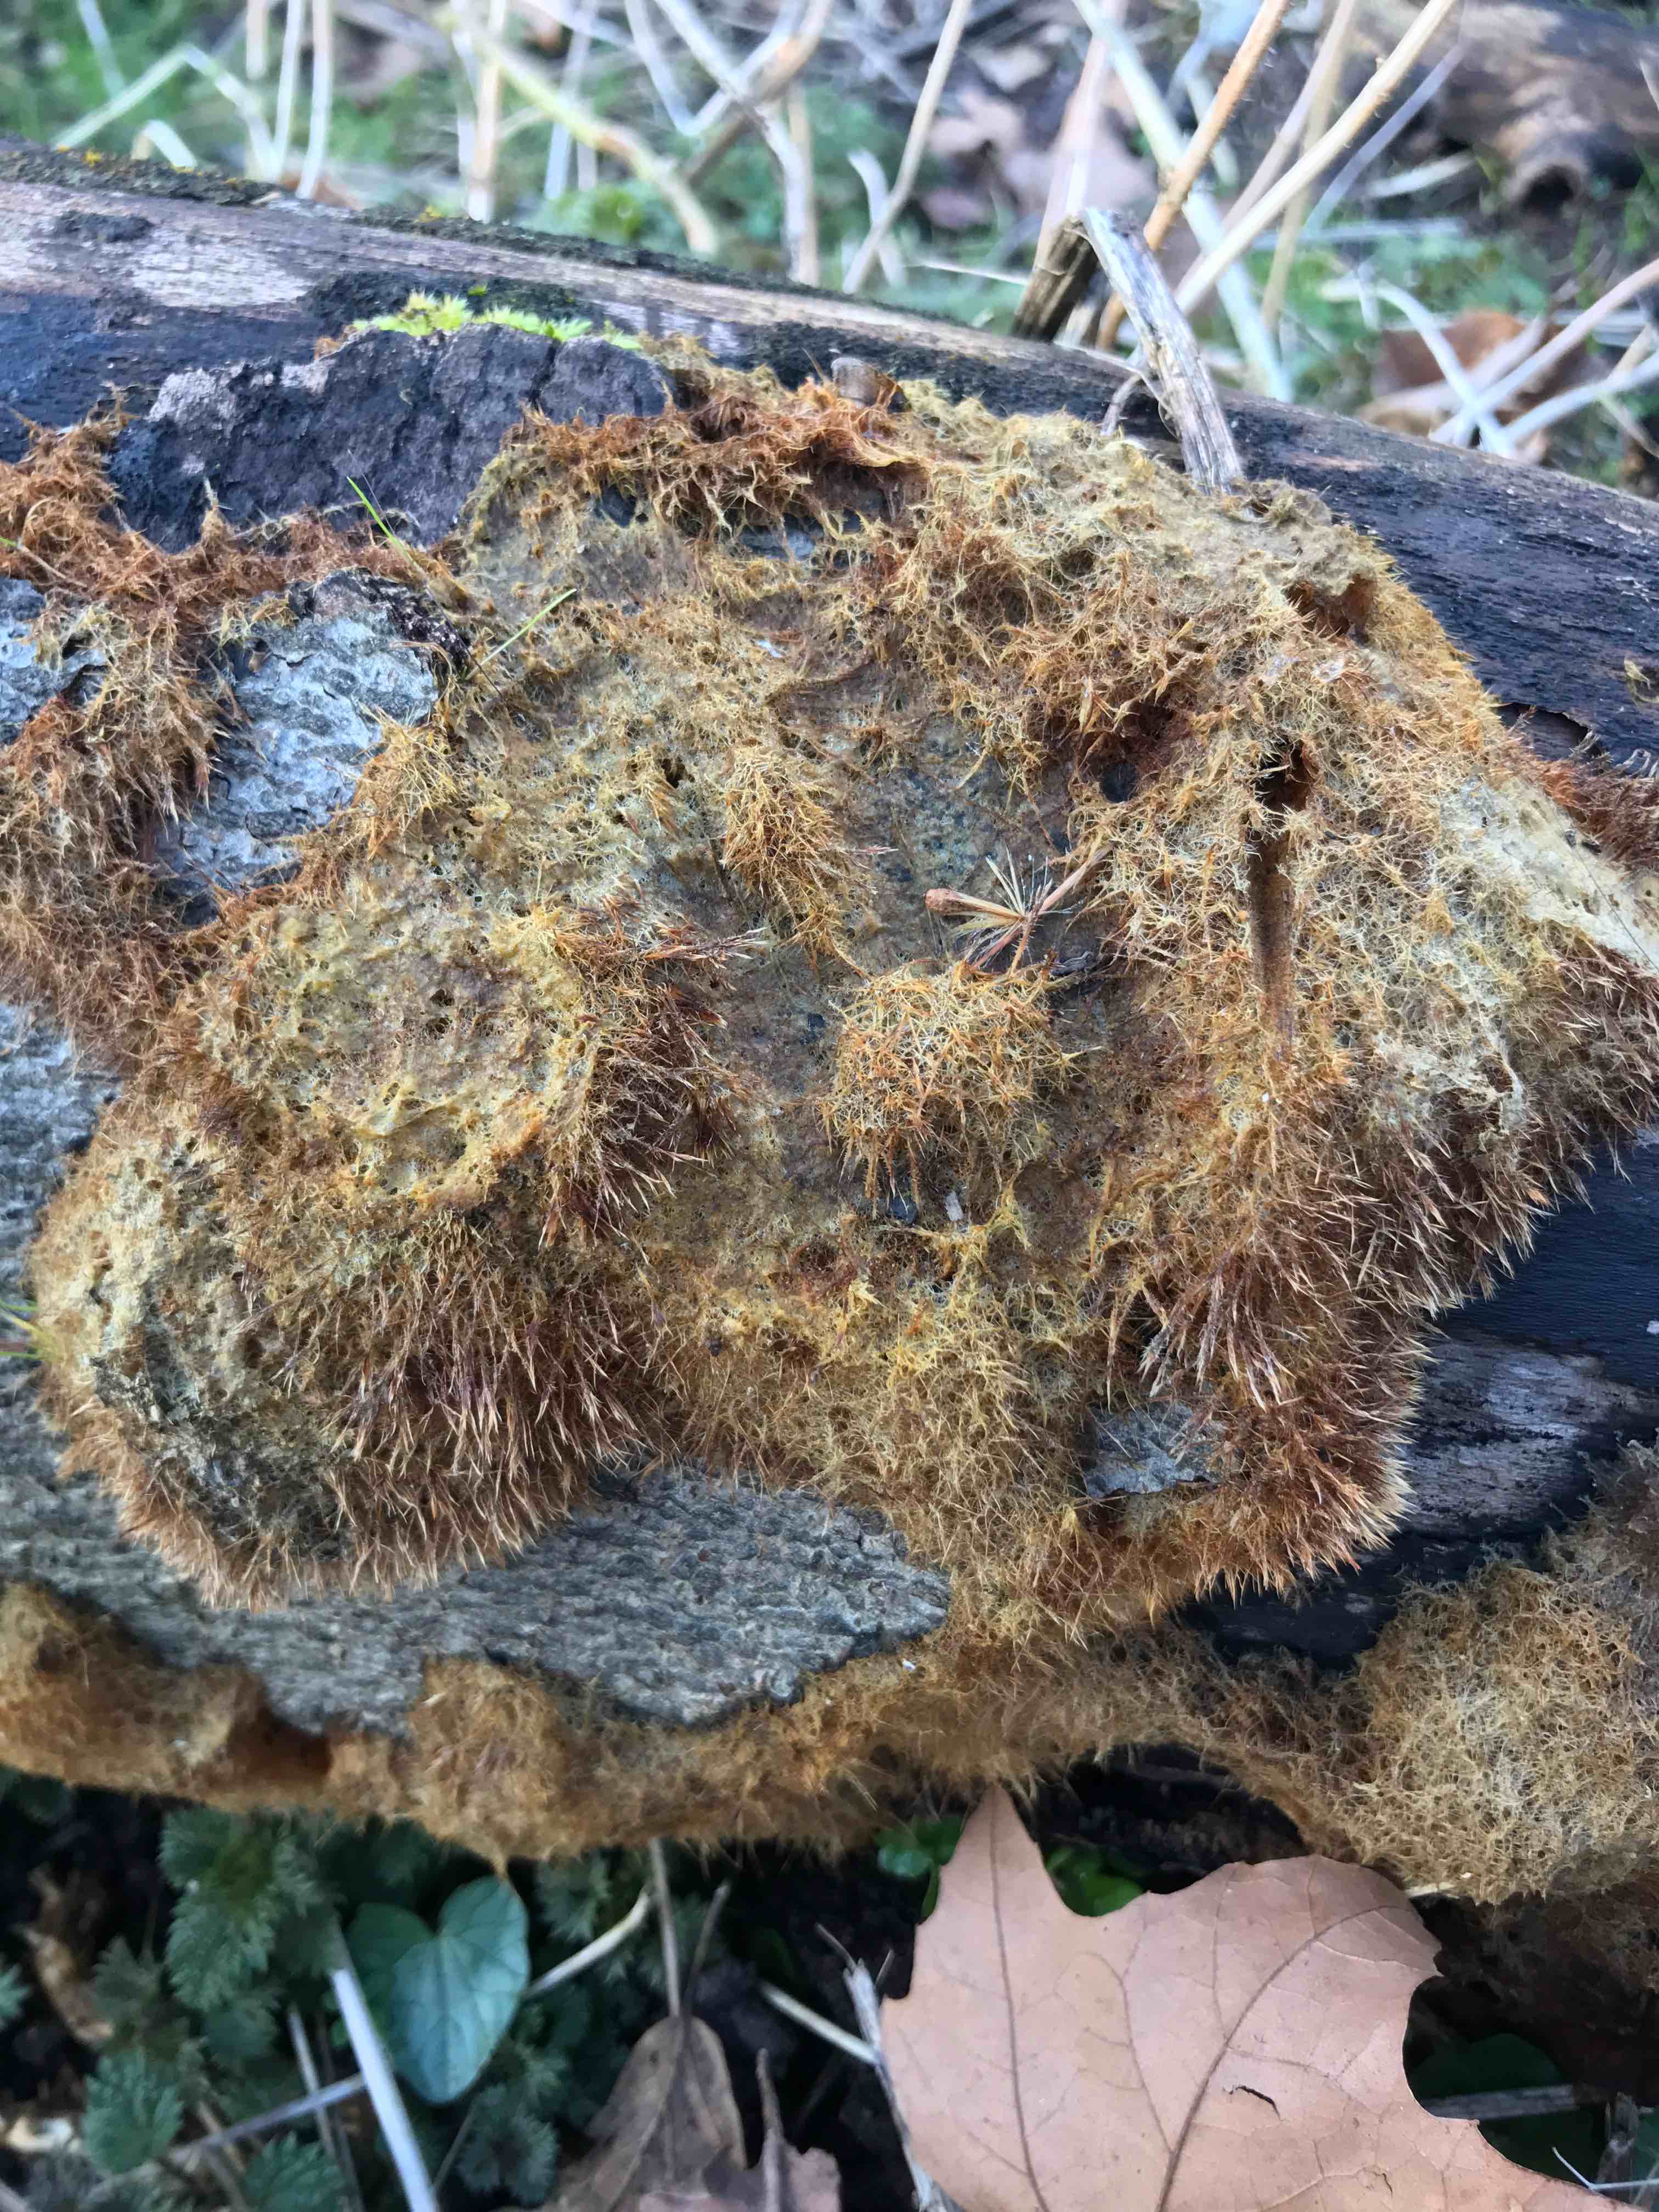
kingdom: Fungi
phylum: Basidiomycota
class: Agaricomycetes
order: Agaricales
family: Psathyrellaceae
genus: Ozonium
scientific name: Ozonium
